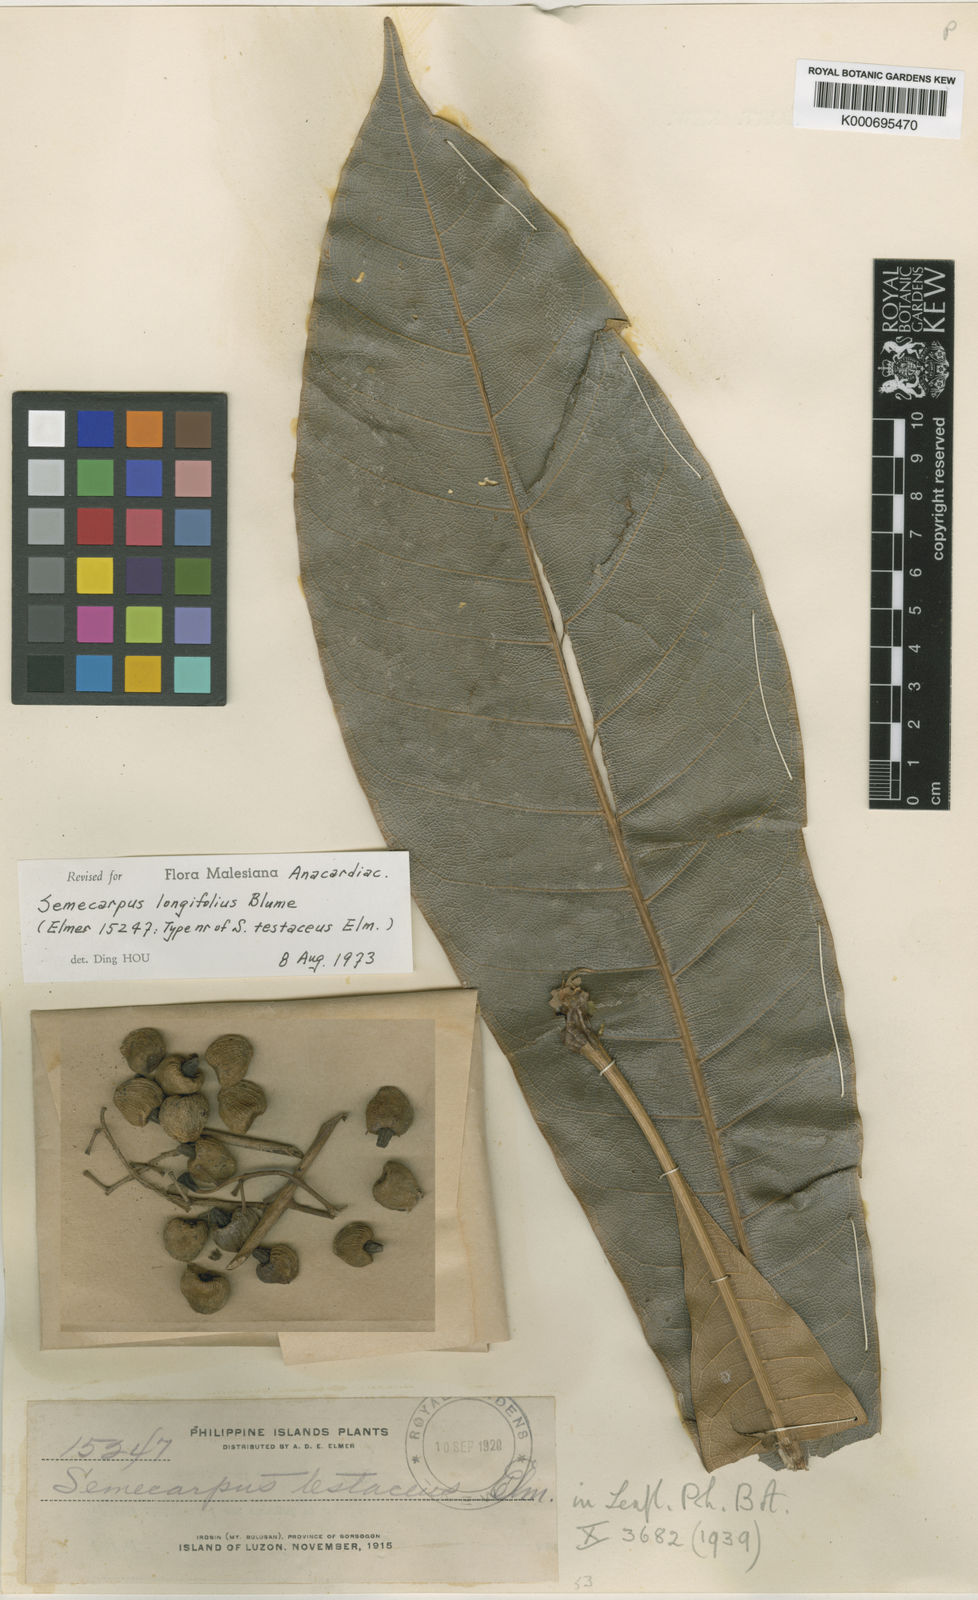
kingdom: Plantae
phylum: Tracheophyta
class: Magnoliopsida
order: Sapindales
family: Anacardiaceae
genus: Semecarpus
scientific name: Semecarpus longifolius
